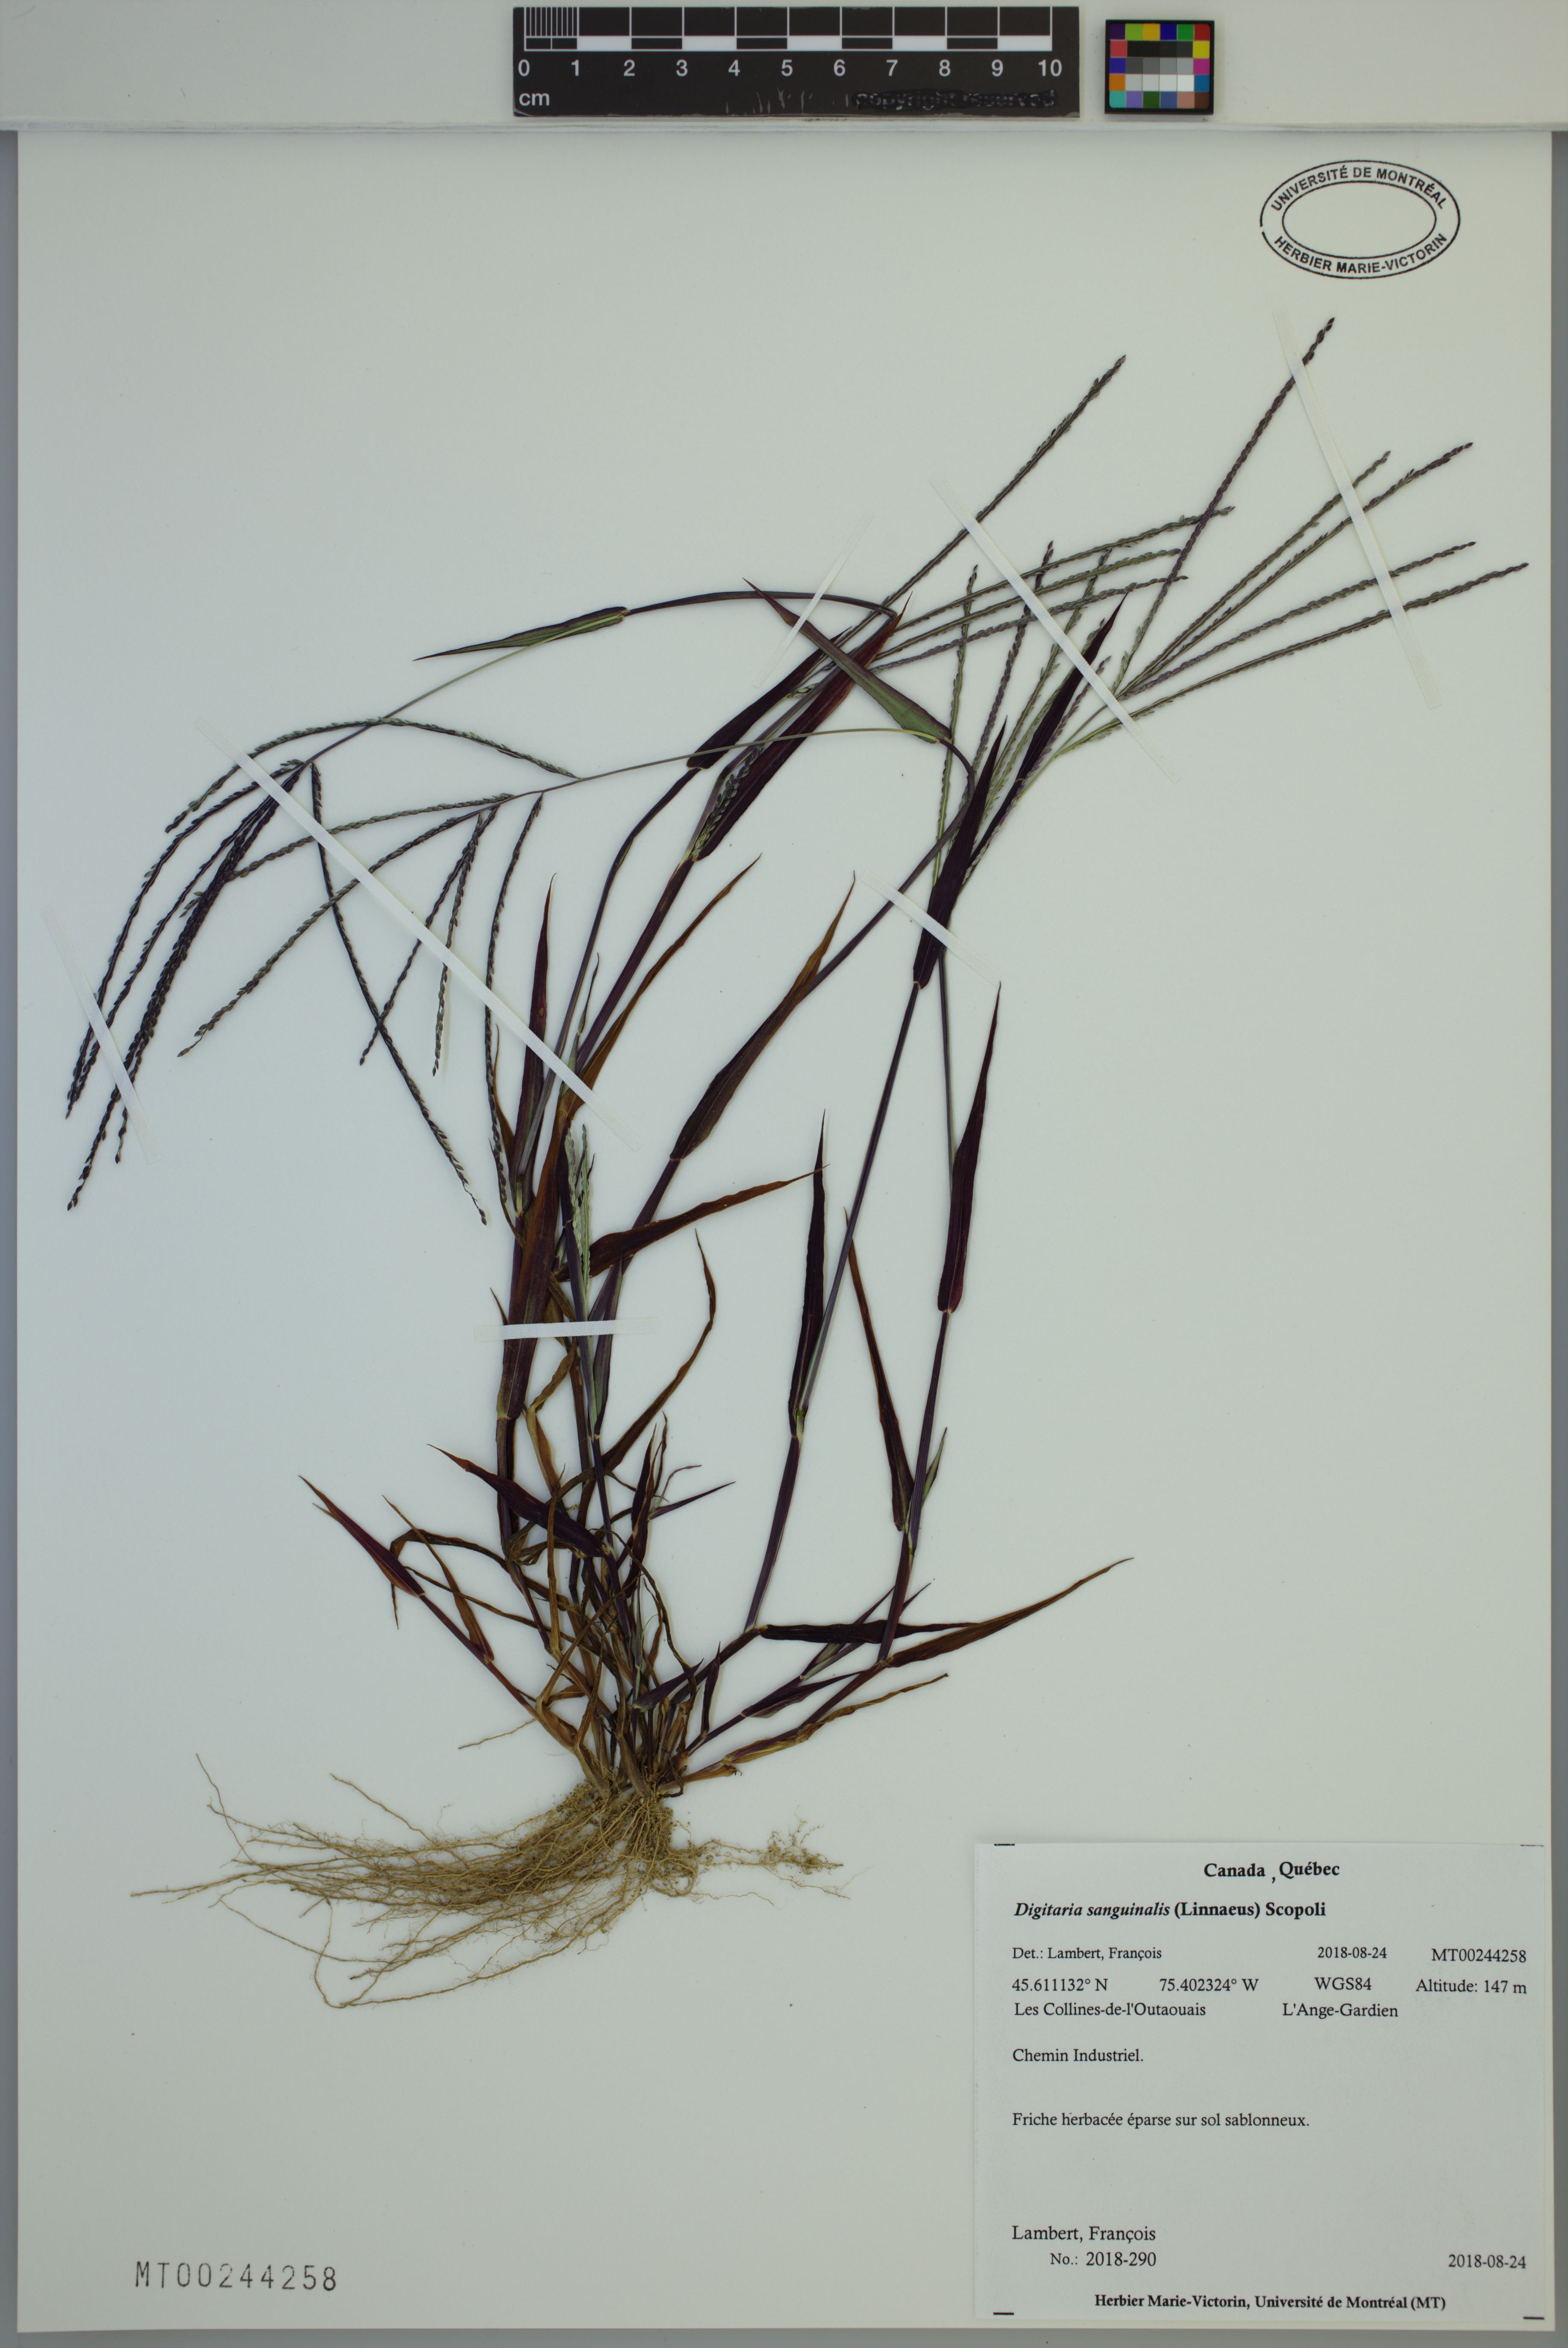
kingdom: Plantae
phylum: Tracheophyta
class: Liliopsida
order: Poales
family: Poaceae
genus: Digitaria
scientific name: Digitaria sanguinalis
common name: Hairy crabgrass
